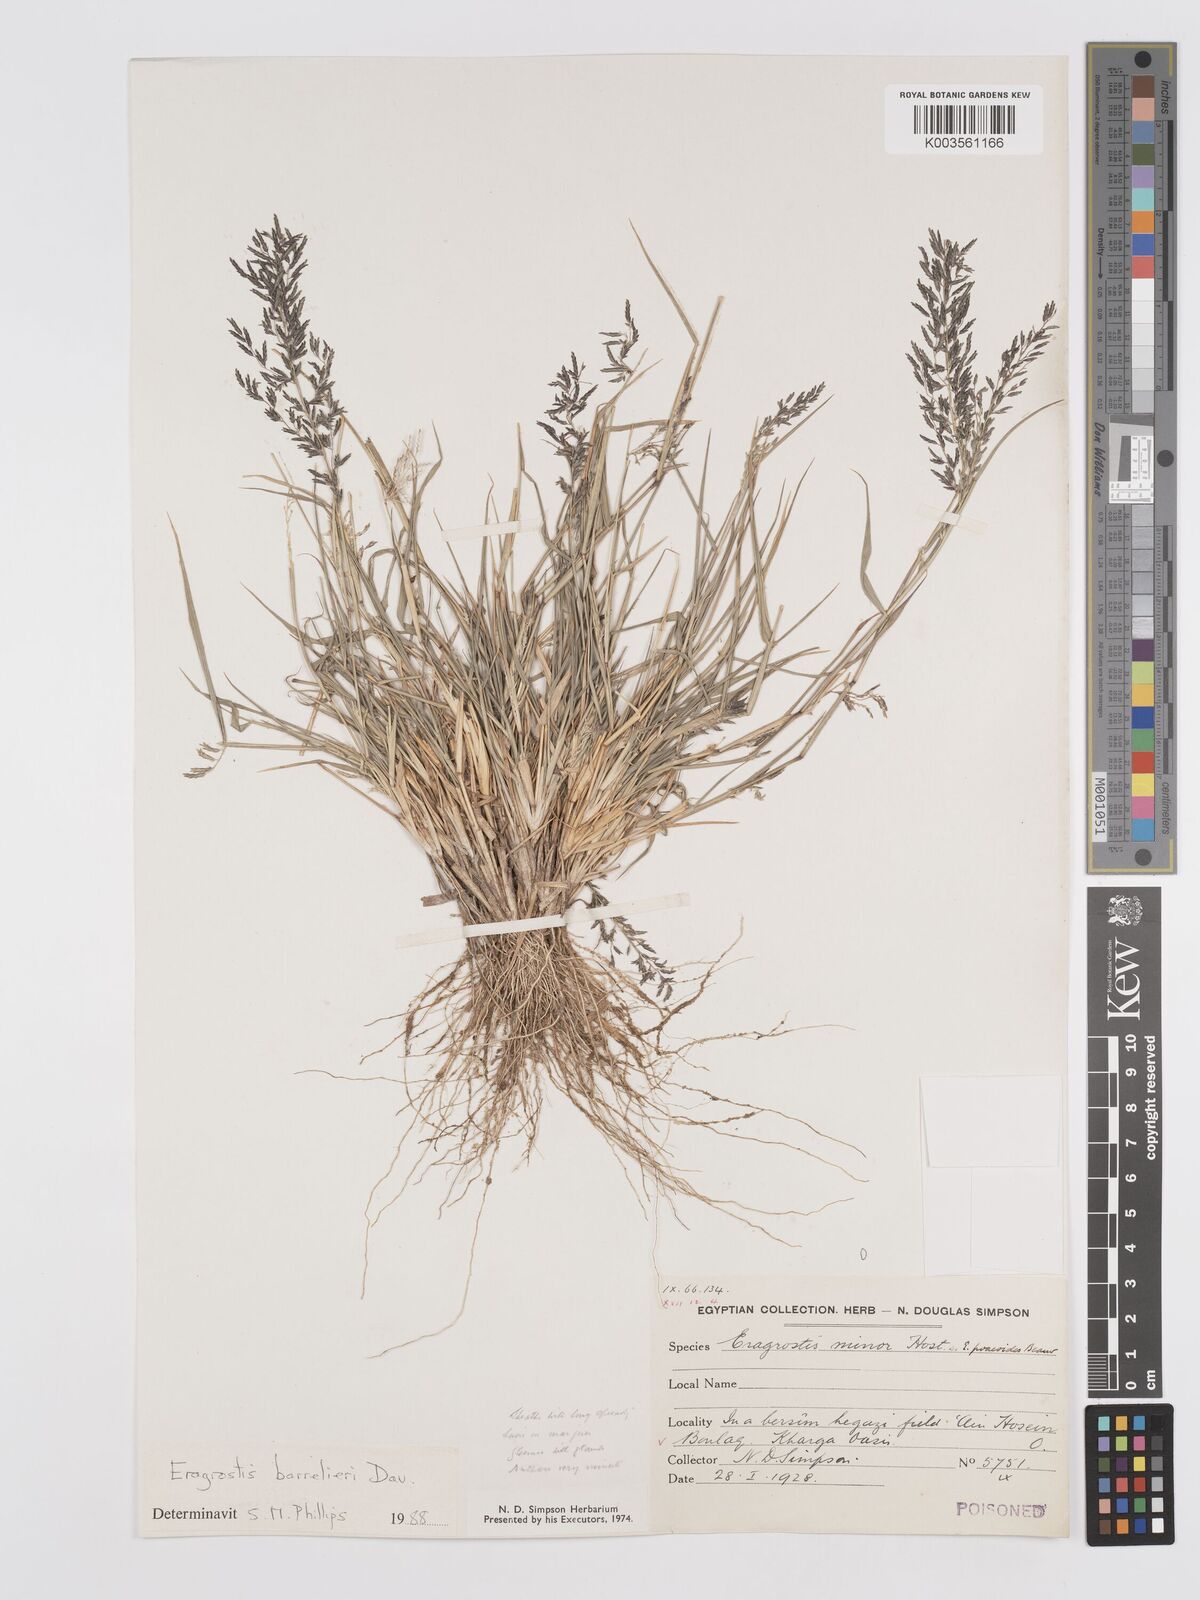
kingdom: Plantae
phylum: Tracheophyta
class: Liliopsida
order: Poales
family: Poaceae
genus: Eragrostis
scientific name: Eragrostis barrelieri
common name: Mediterranean lovegrass
